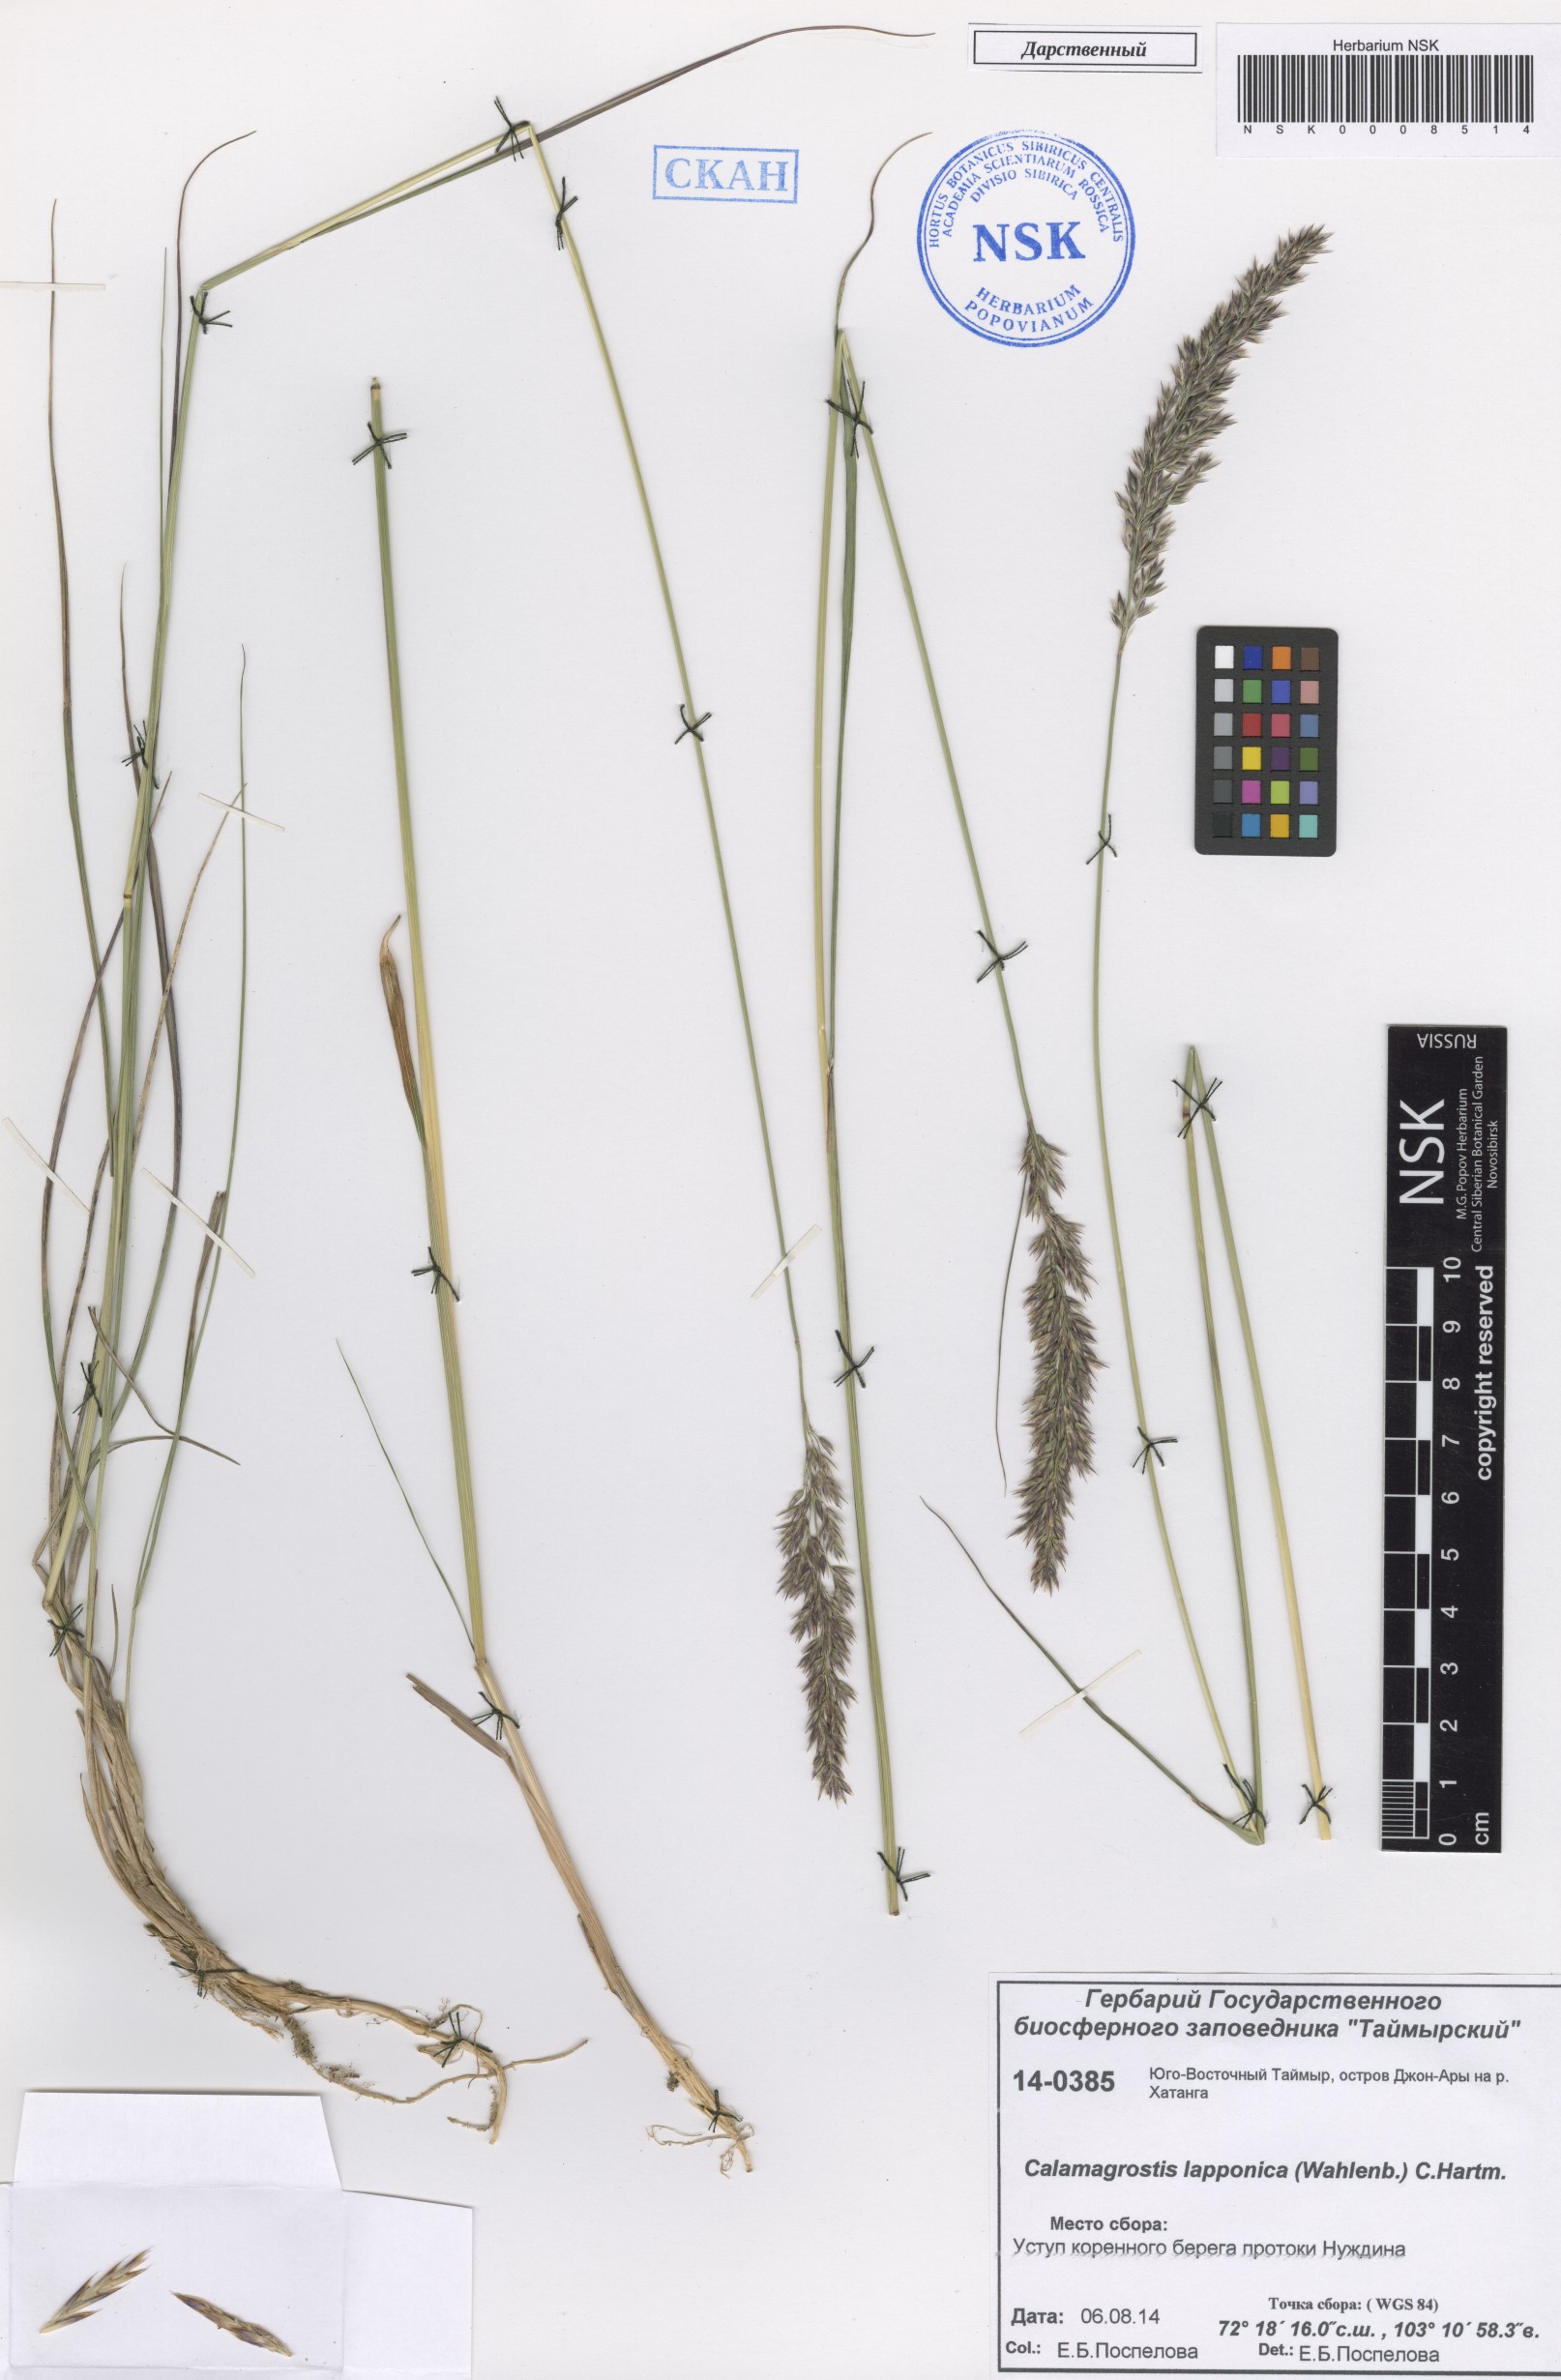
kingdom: Plantae
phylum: Tracheophyta
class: Liliopsida
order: Poales
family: Poaceae
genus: Calamagrostis
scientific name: Calamagrostis lapponica
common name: Lapland reedgrass
